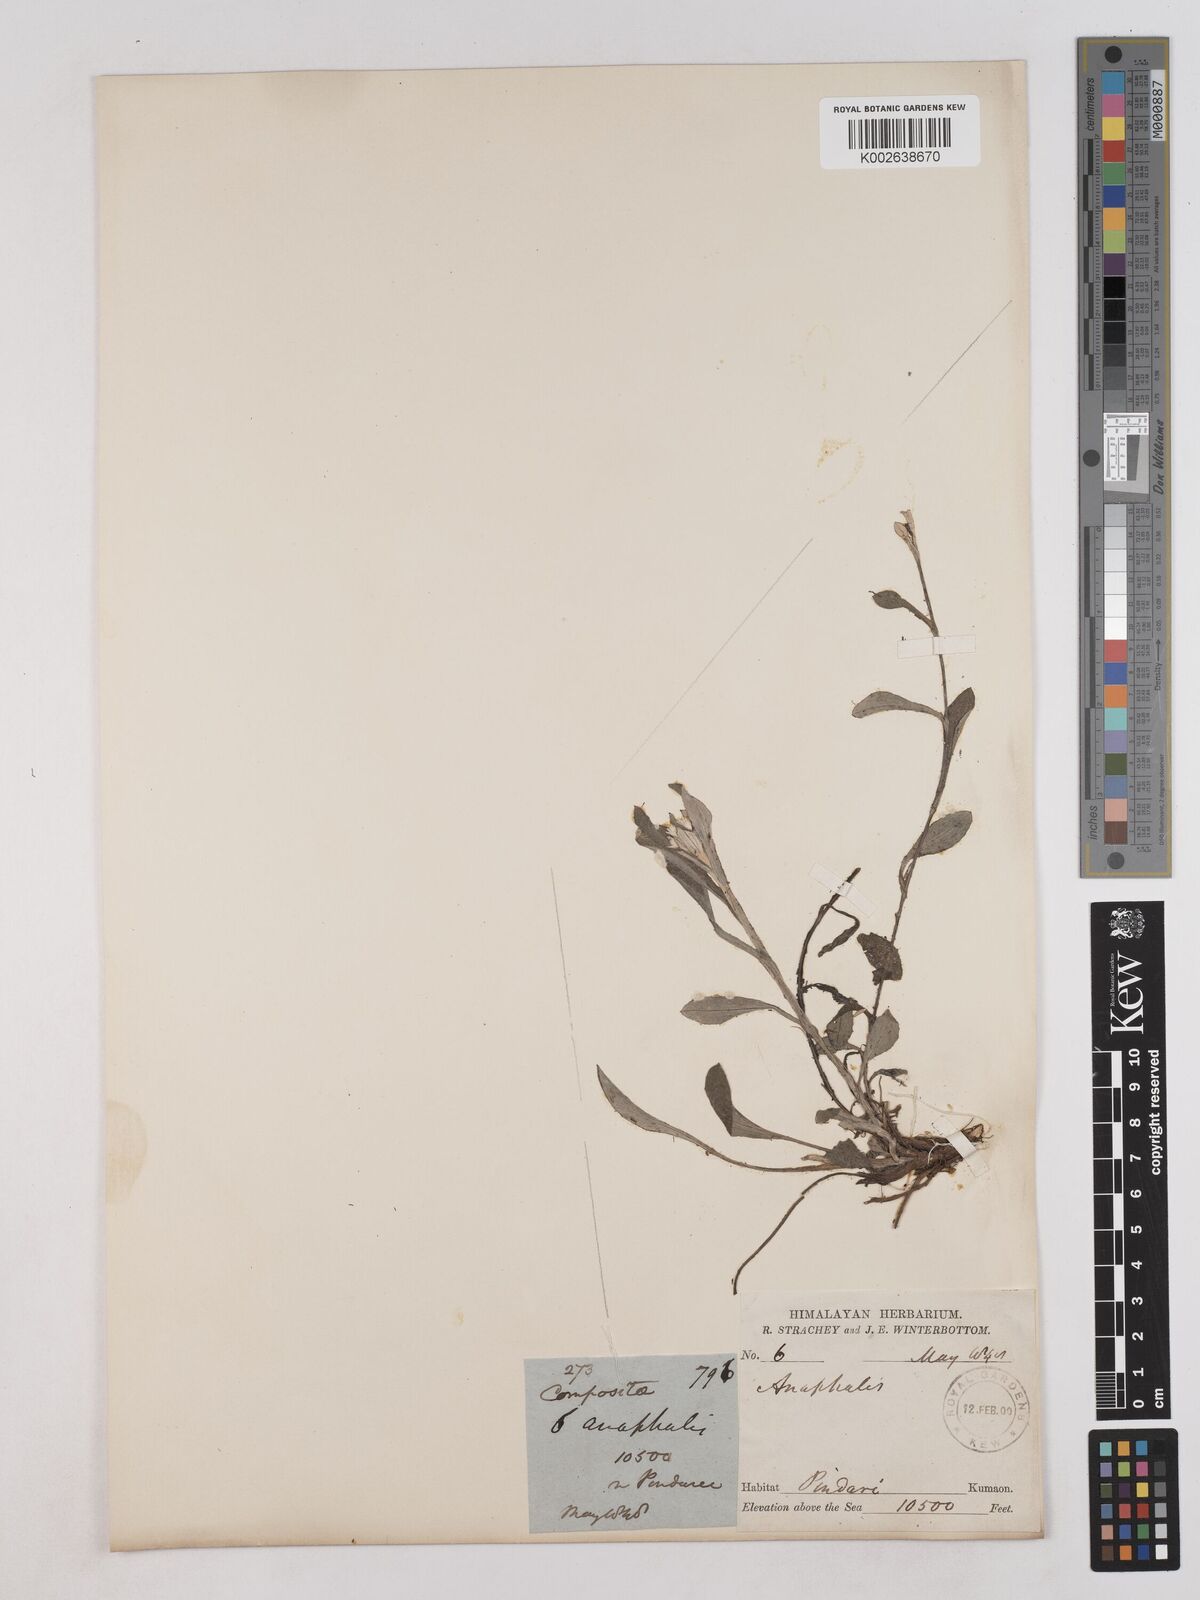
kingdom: Plantae
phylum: Tracheophyta
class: Magnoliopsida
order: Asterales
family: Asteraceae
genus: Anaphalioides
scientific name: Anaphalioides trinervis
